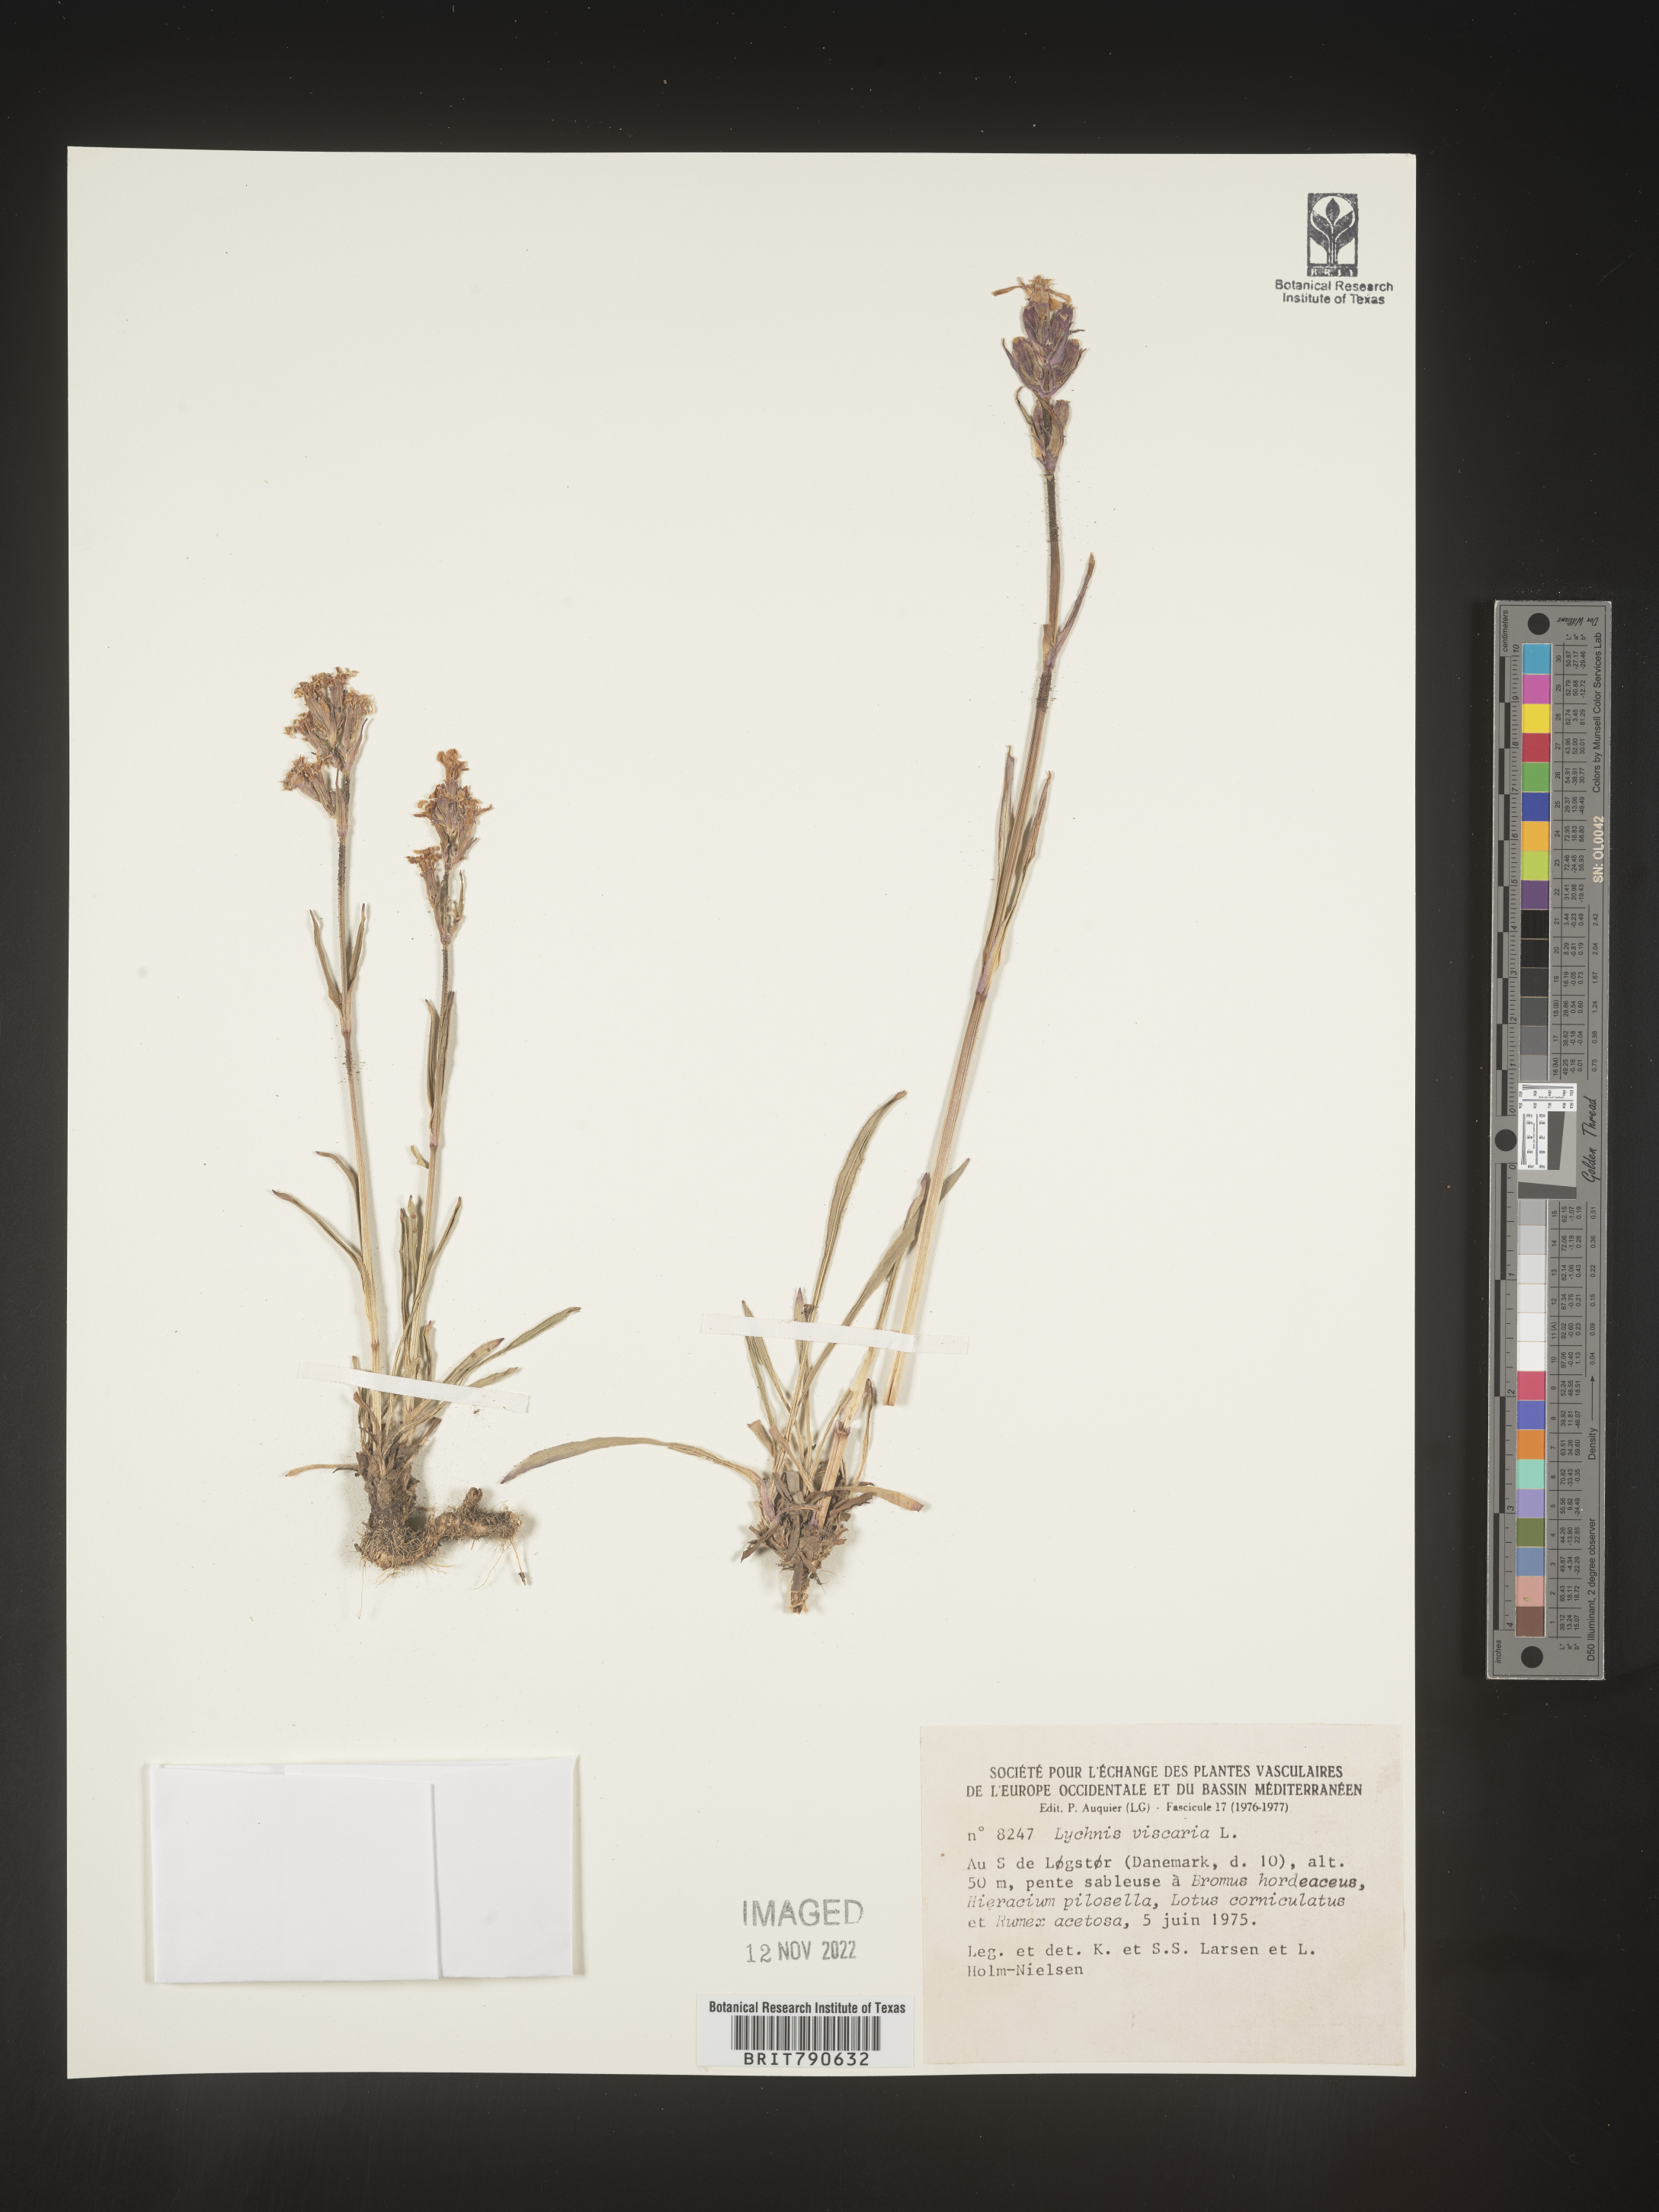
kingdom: Plantae
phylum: Tracheophyta
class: Magnoliopsida
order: Caryophyllales
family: Caryophyllaceae
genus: Silene
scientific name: Silene
